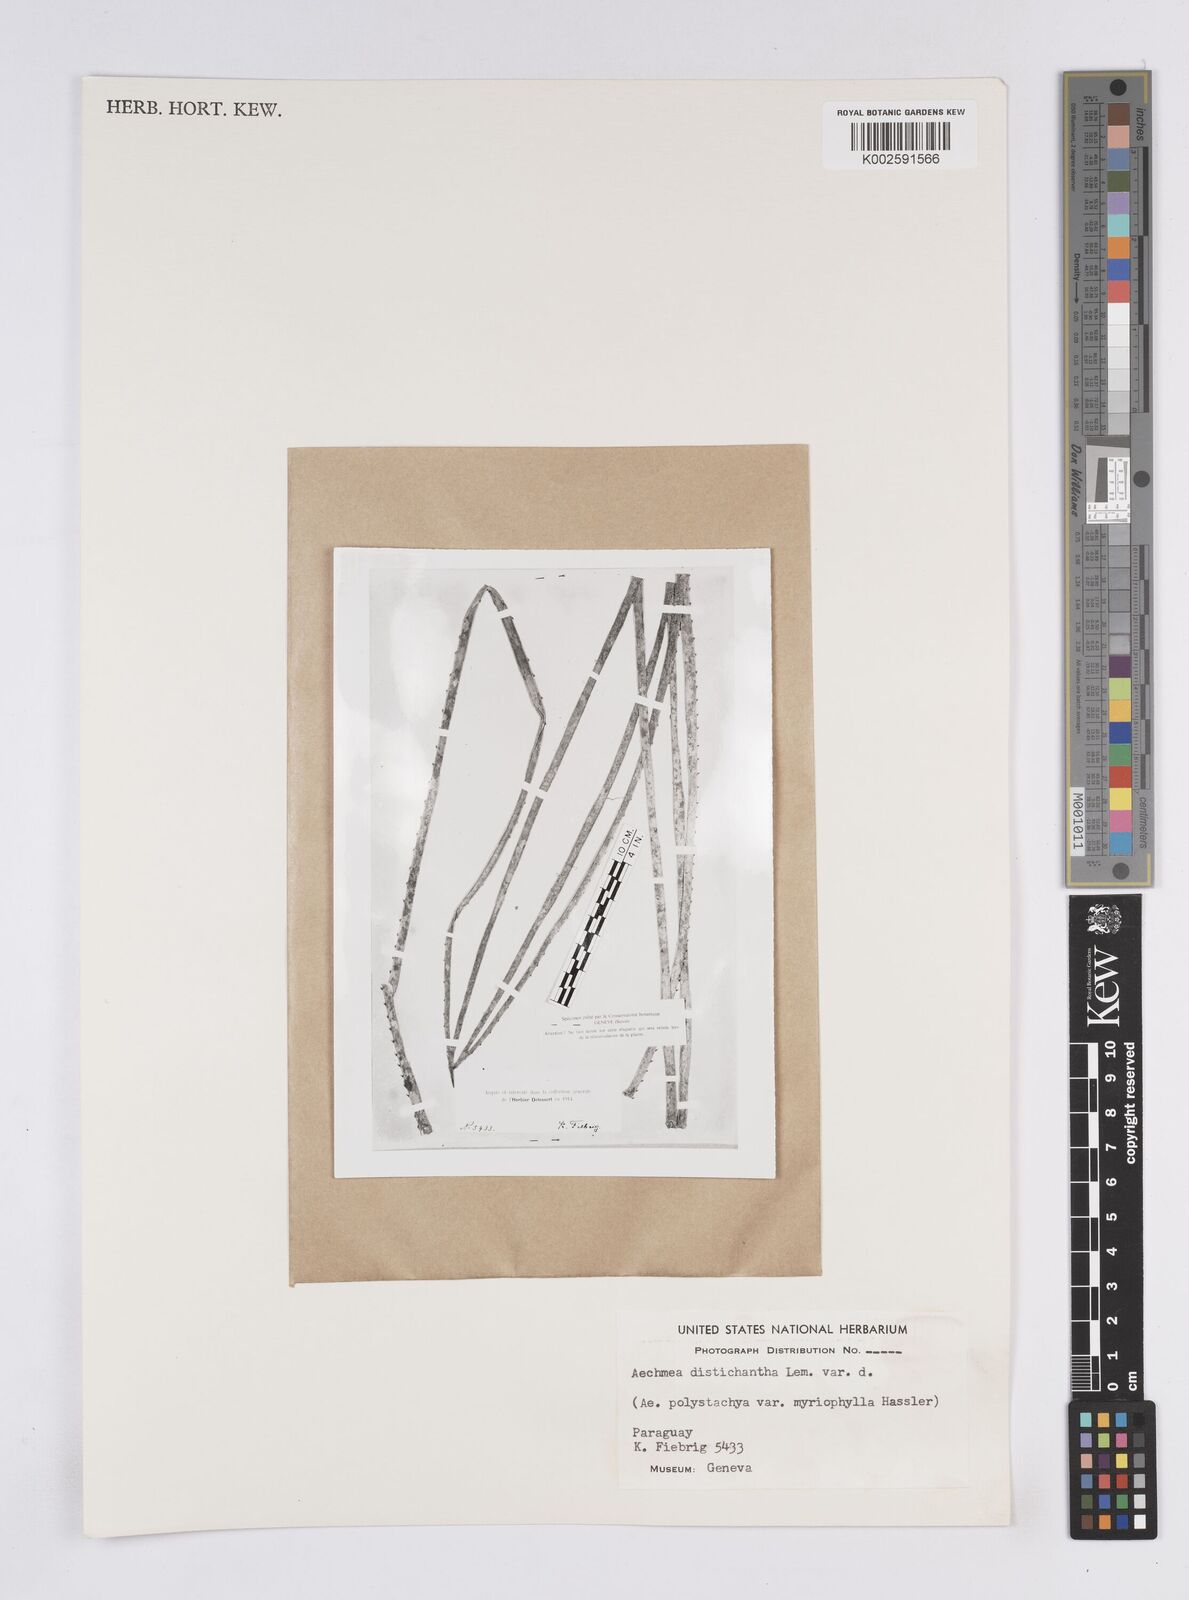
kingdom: Plantae
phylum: Tracheophyta
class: Liliopsida
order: Poales
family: Bromeliaceae
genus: Aechmea
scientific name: Aechmea distichantha
